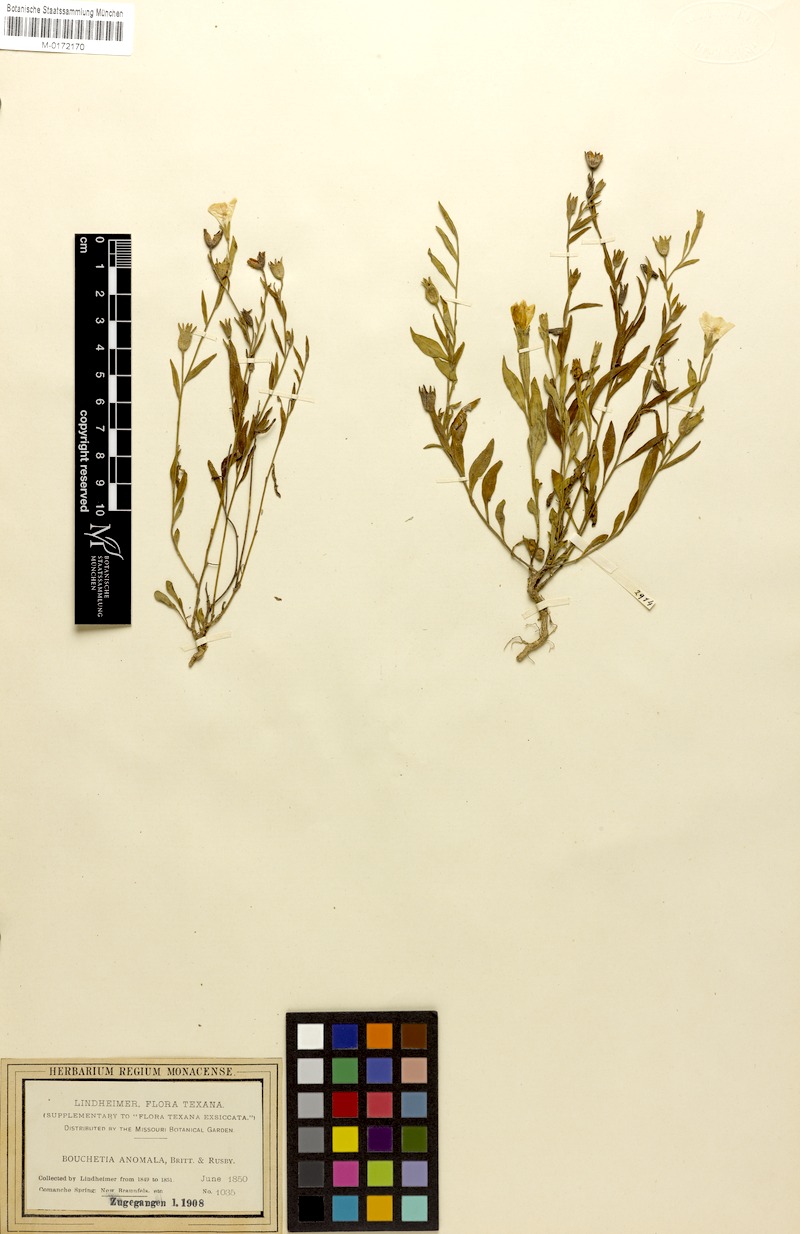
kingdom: Plantae
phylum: Tracheophyta
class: Magnoliopsida
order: Solanales
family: Solanaceae
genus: Salpiglossis
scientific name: Salpiglossis anomala
